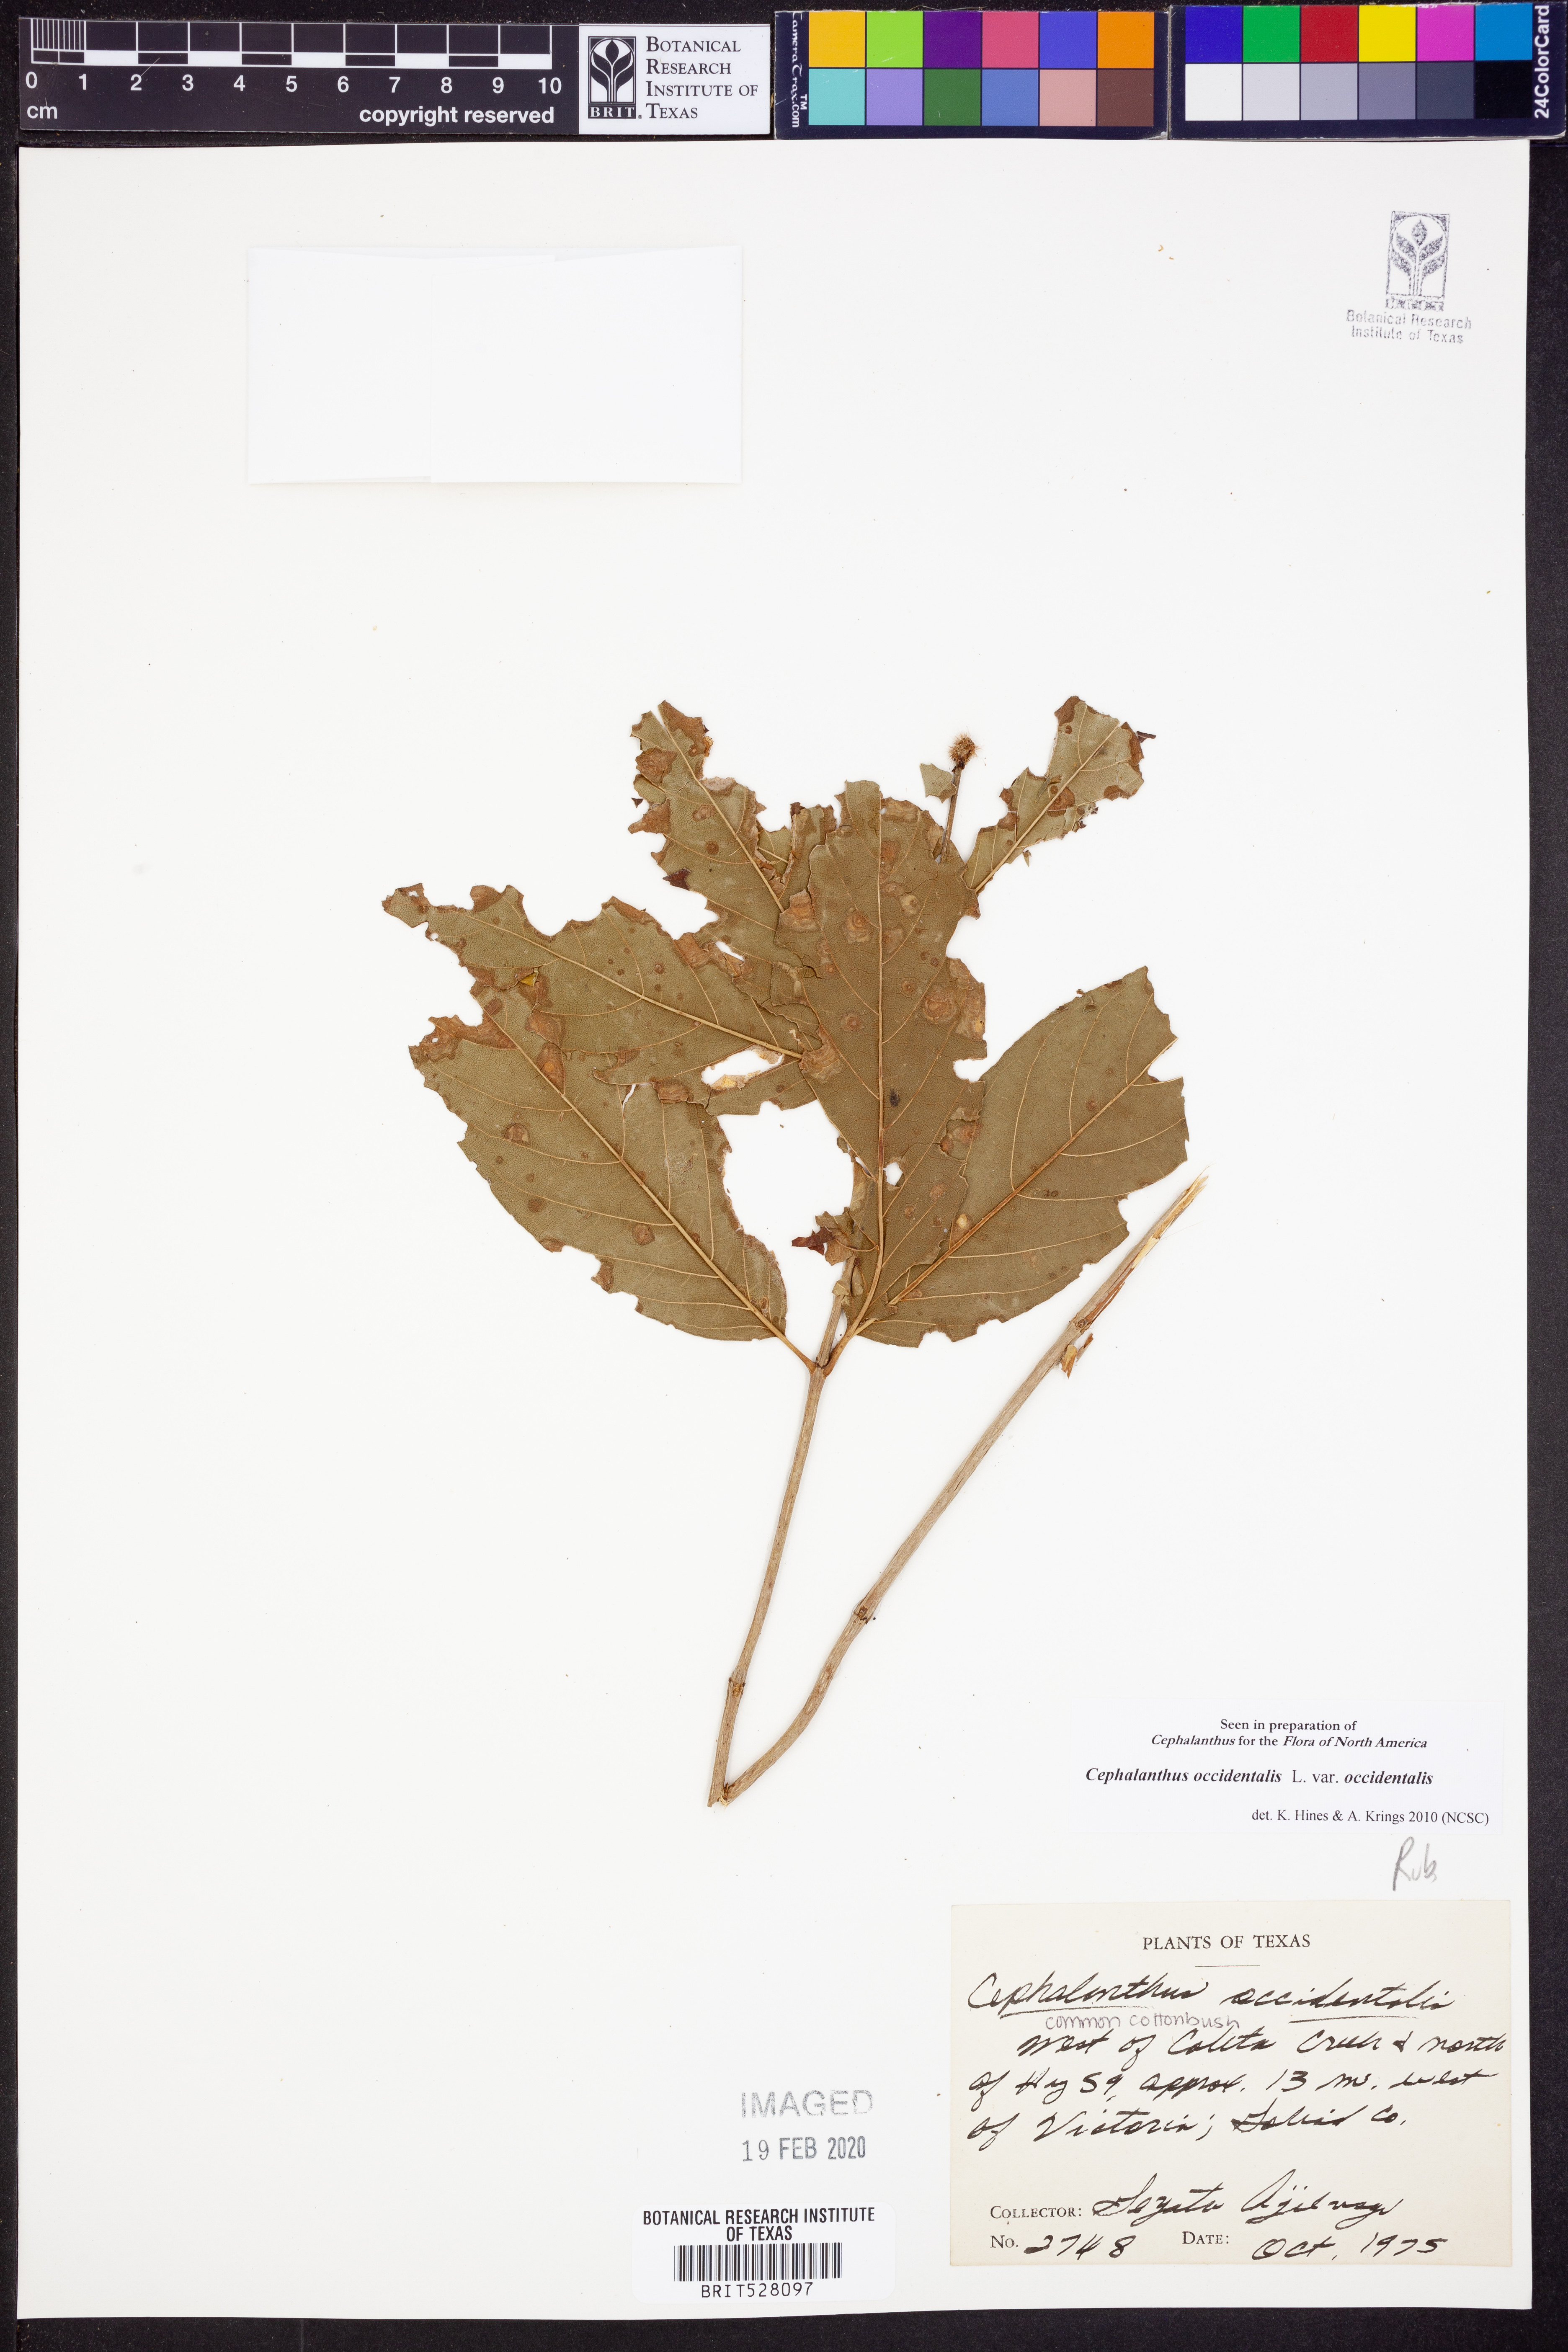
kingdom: Plantae
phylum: Tracheophyta
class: Magnoliopsida
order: Gentianales
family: Rubiaceae
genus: Cephalanthus
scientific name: Cephalanthus occidentalis
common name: Button-willow
